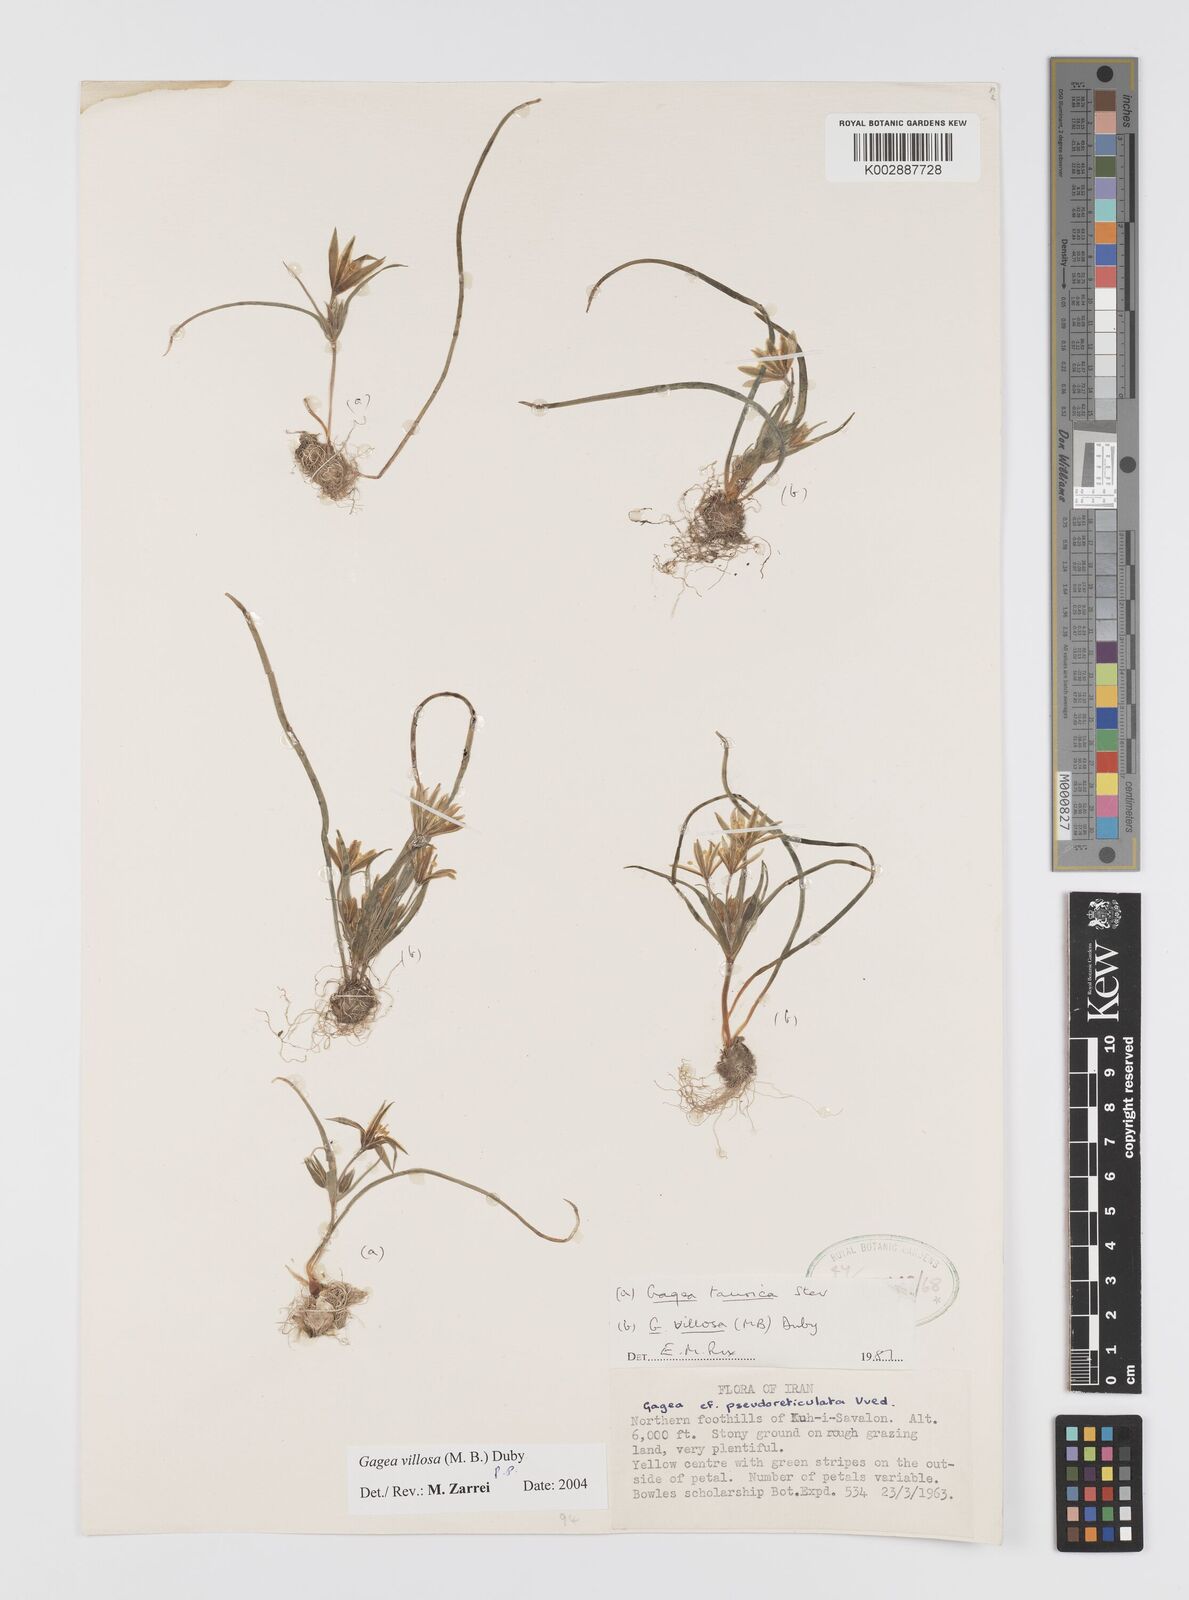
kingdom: Plantae
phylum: Tracheophyta
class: Liliopsida
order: Liliales
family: Liliaceae
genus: Gagea
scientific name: Gagea villosa
